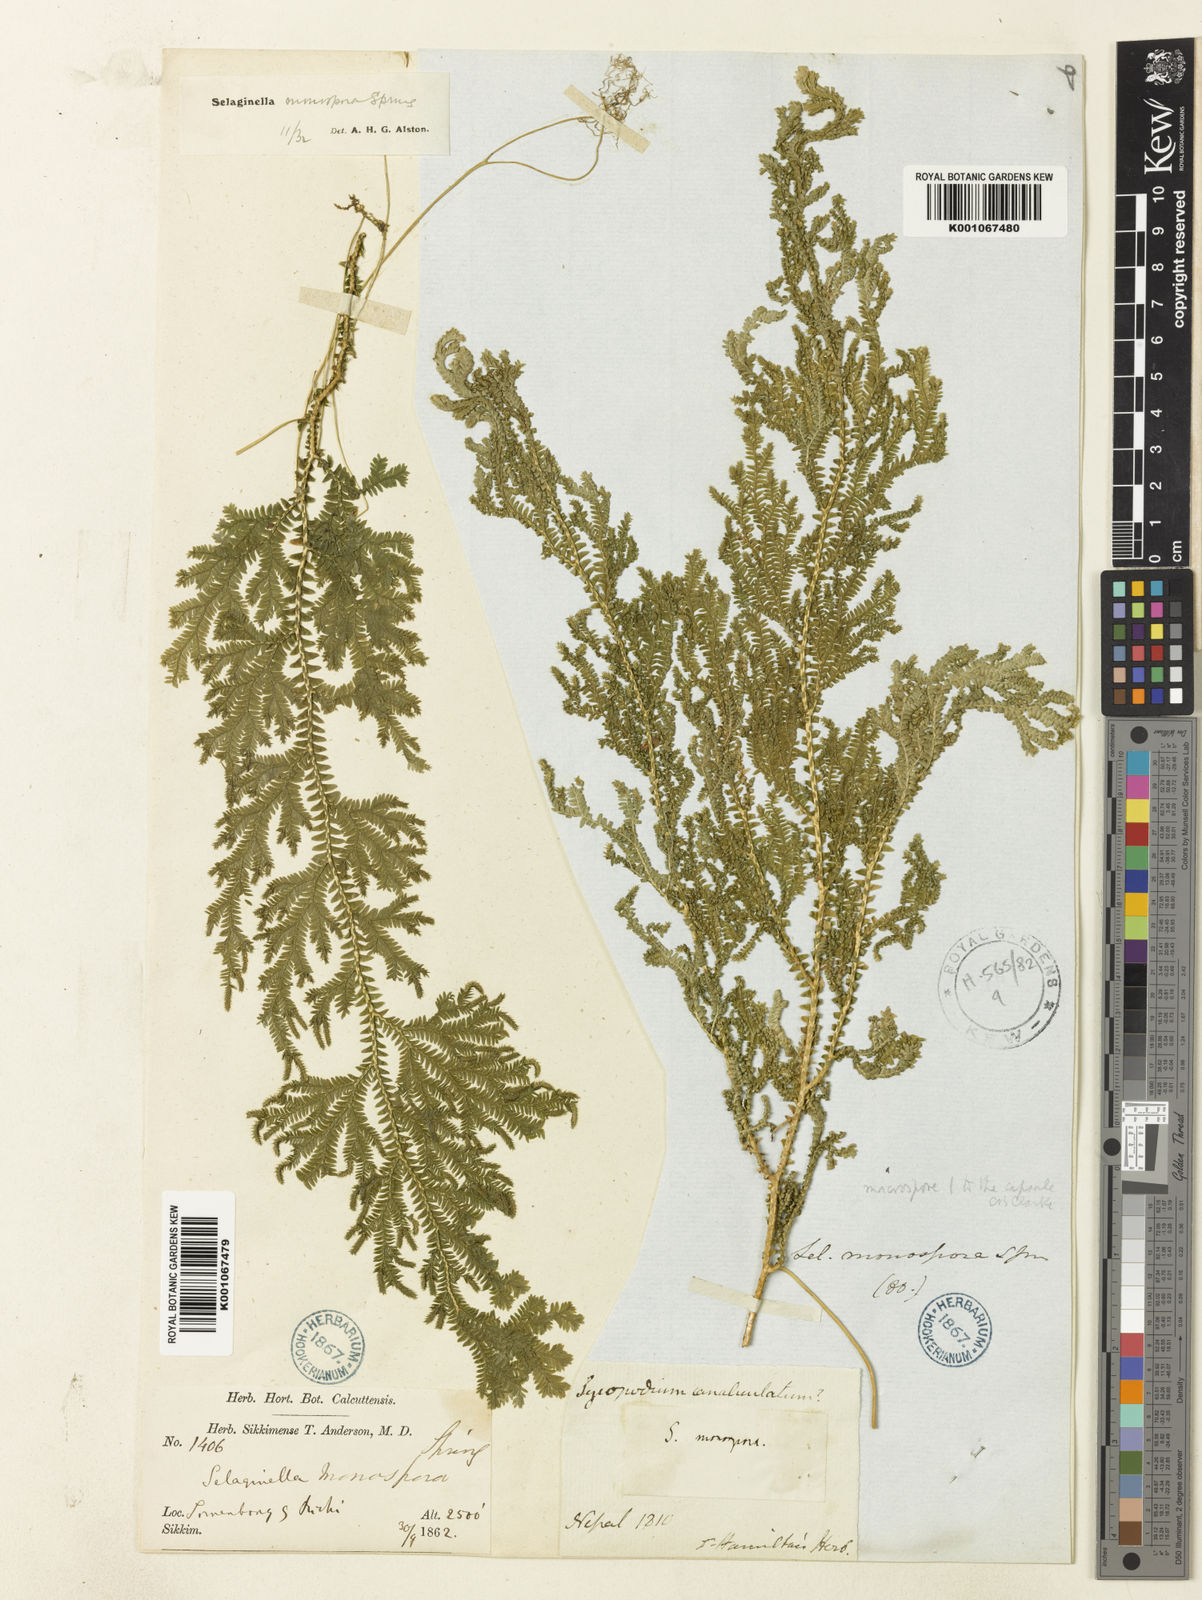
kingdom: Plantae
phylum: Tracheophyta
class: Lycopodiopsida
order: Selaginellales
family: Selaginellaceae
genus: Selaginella
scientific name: Selaginella monospora
